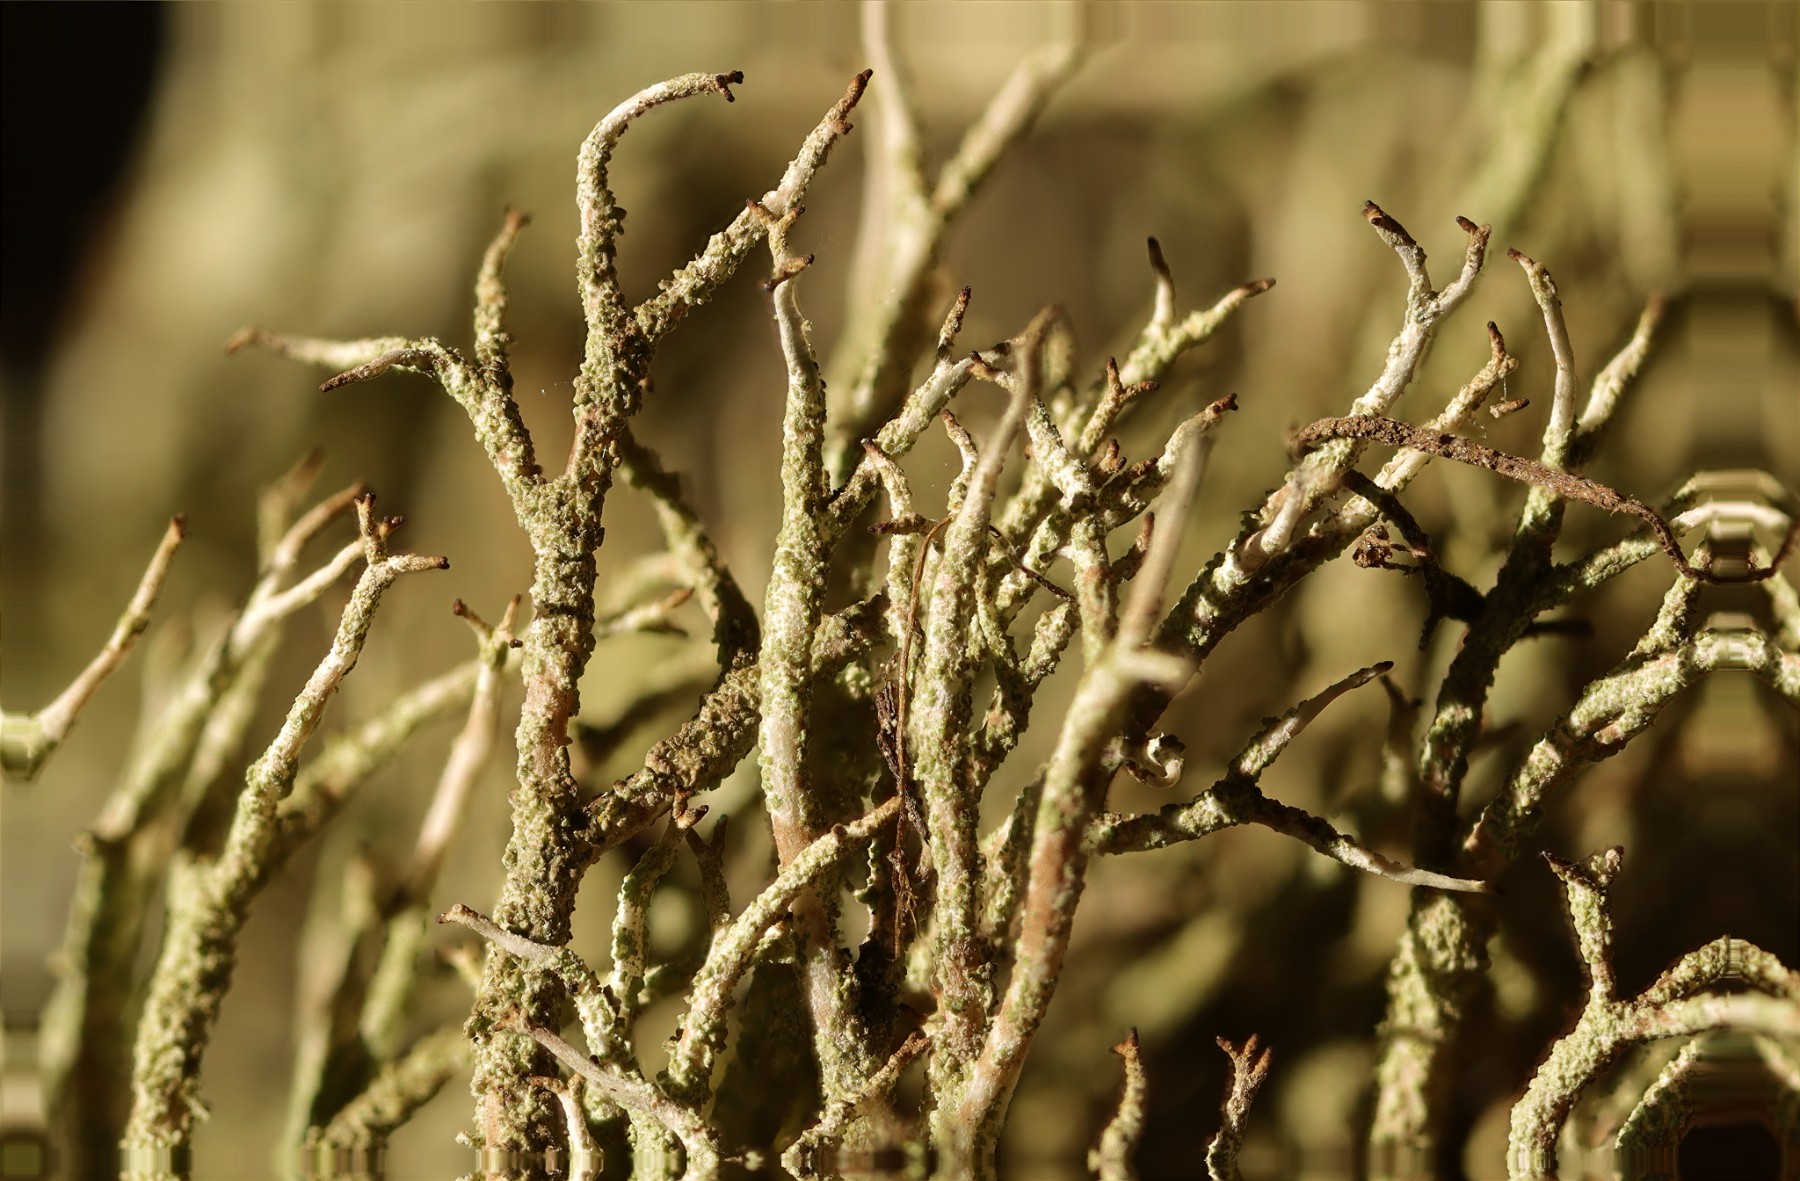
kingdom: Fungi
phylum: Ascomycota
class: Lecanoromycetes
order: Lecanorales
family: Cladoniaceae
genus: Cladonia
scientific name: Cladonia scabriuscula
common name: ru bægerlav
